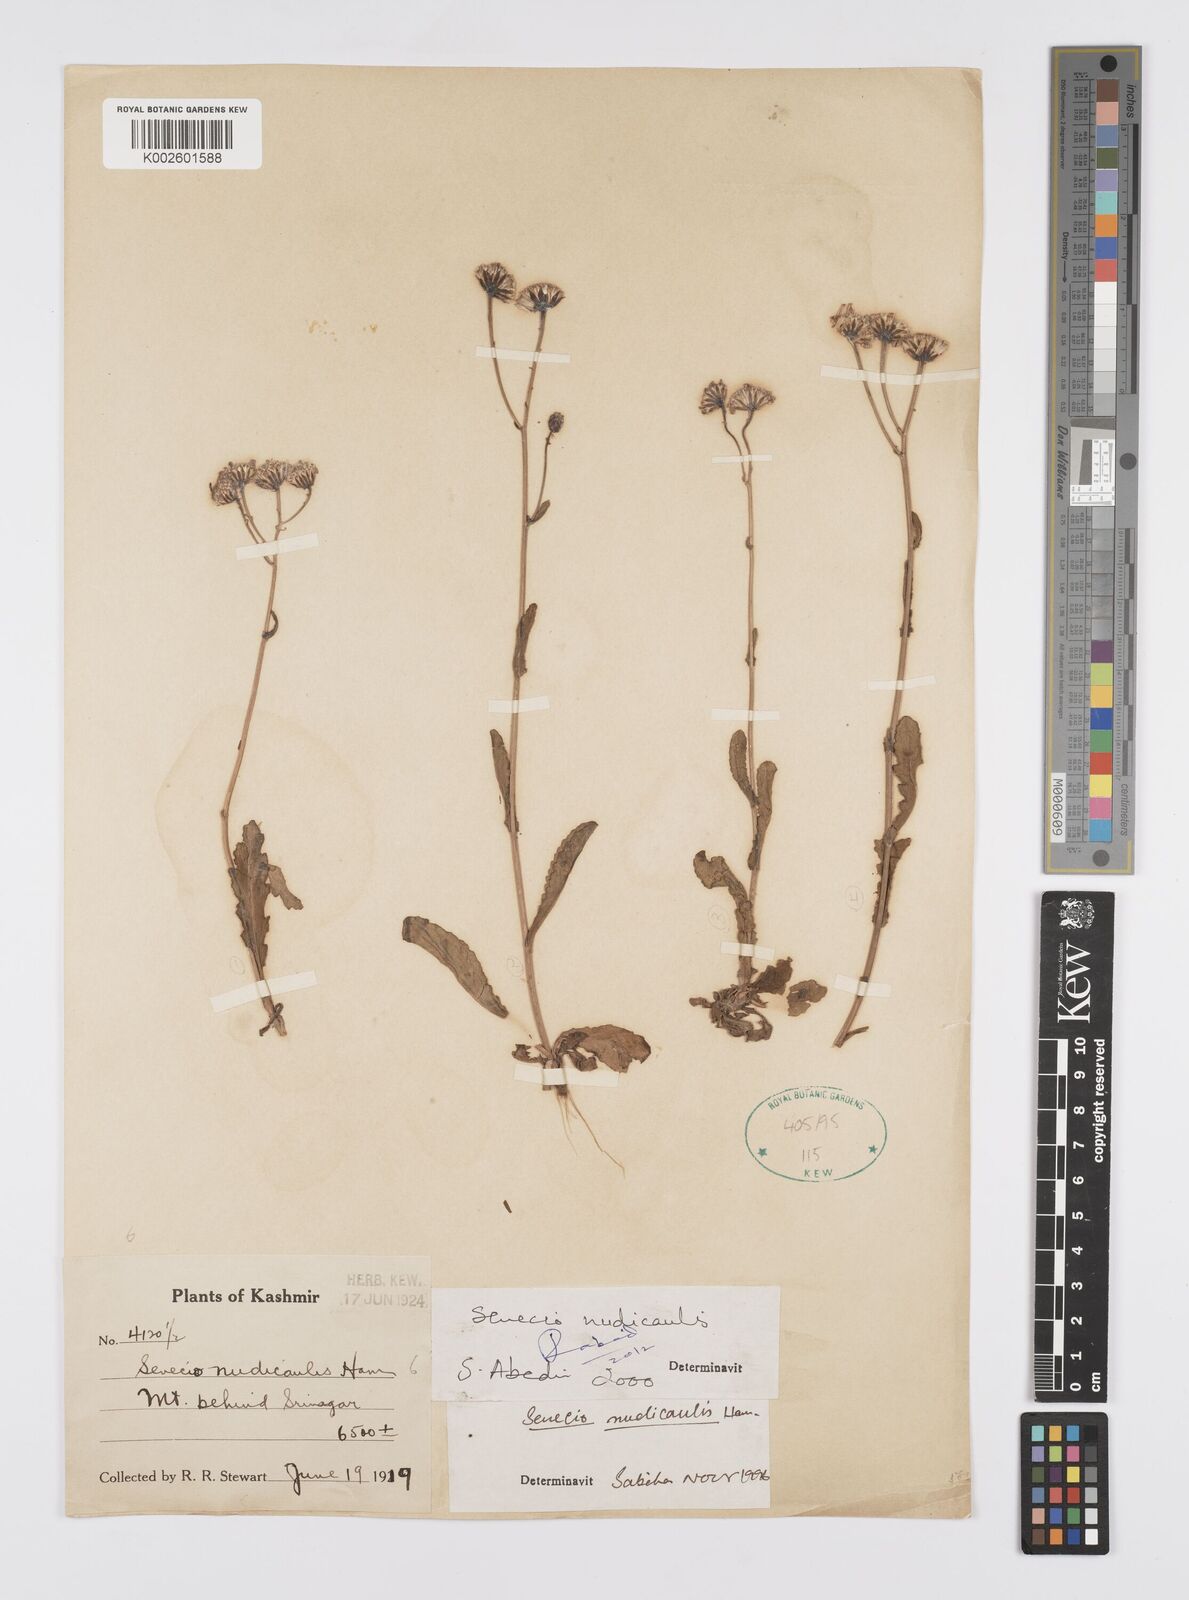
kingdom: Plantae
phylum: Tracheophyta
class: Magnoliopsida
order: Asterales
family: Asteraceae
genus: Jacobaea
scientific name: Jacobaea nudicaulis
